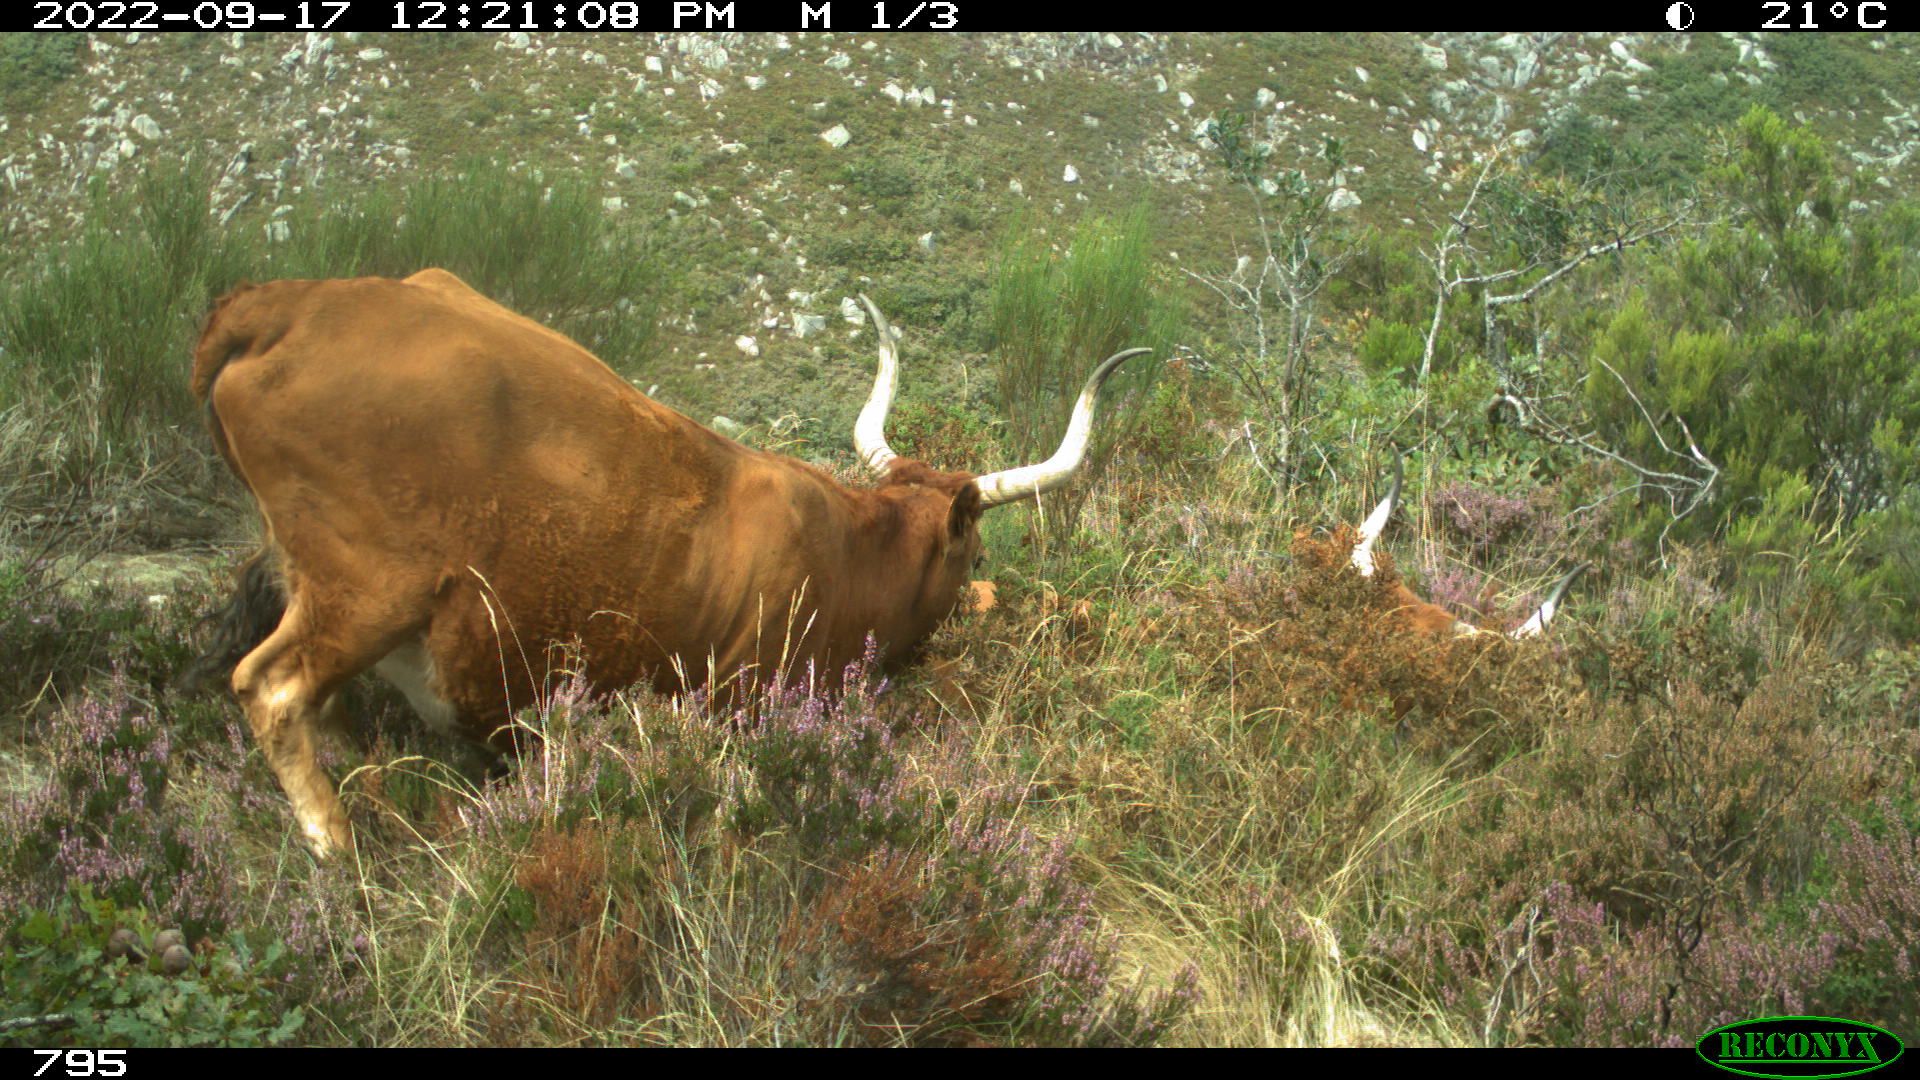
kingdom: Animalia
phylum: Chordata
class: Mammalia
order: Artiodactyla
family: Bovidae
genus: Bos
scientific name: Bos taurus
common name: Domesticated cattle
